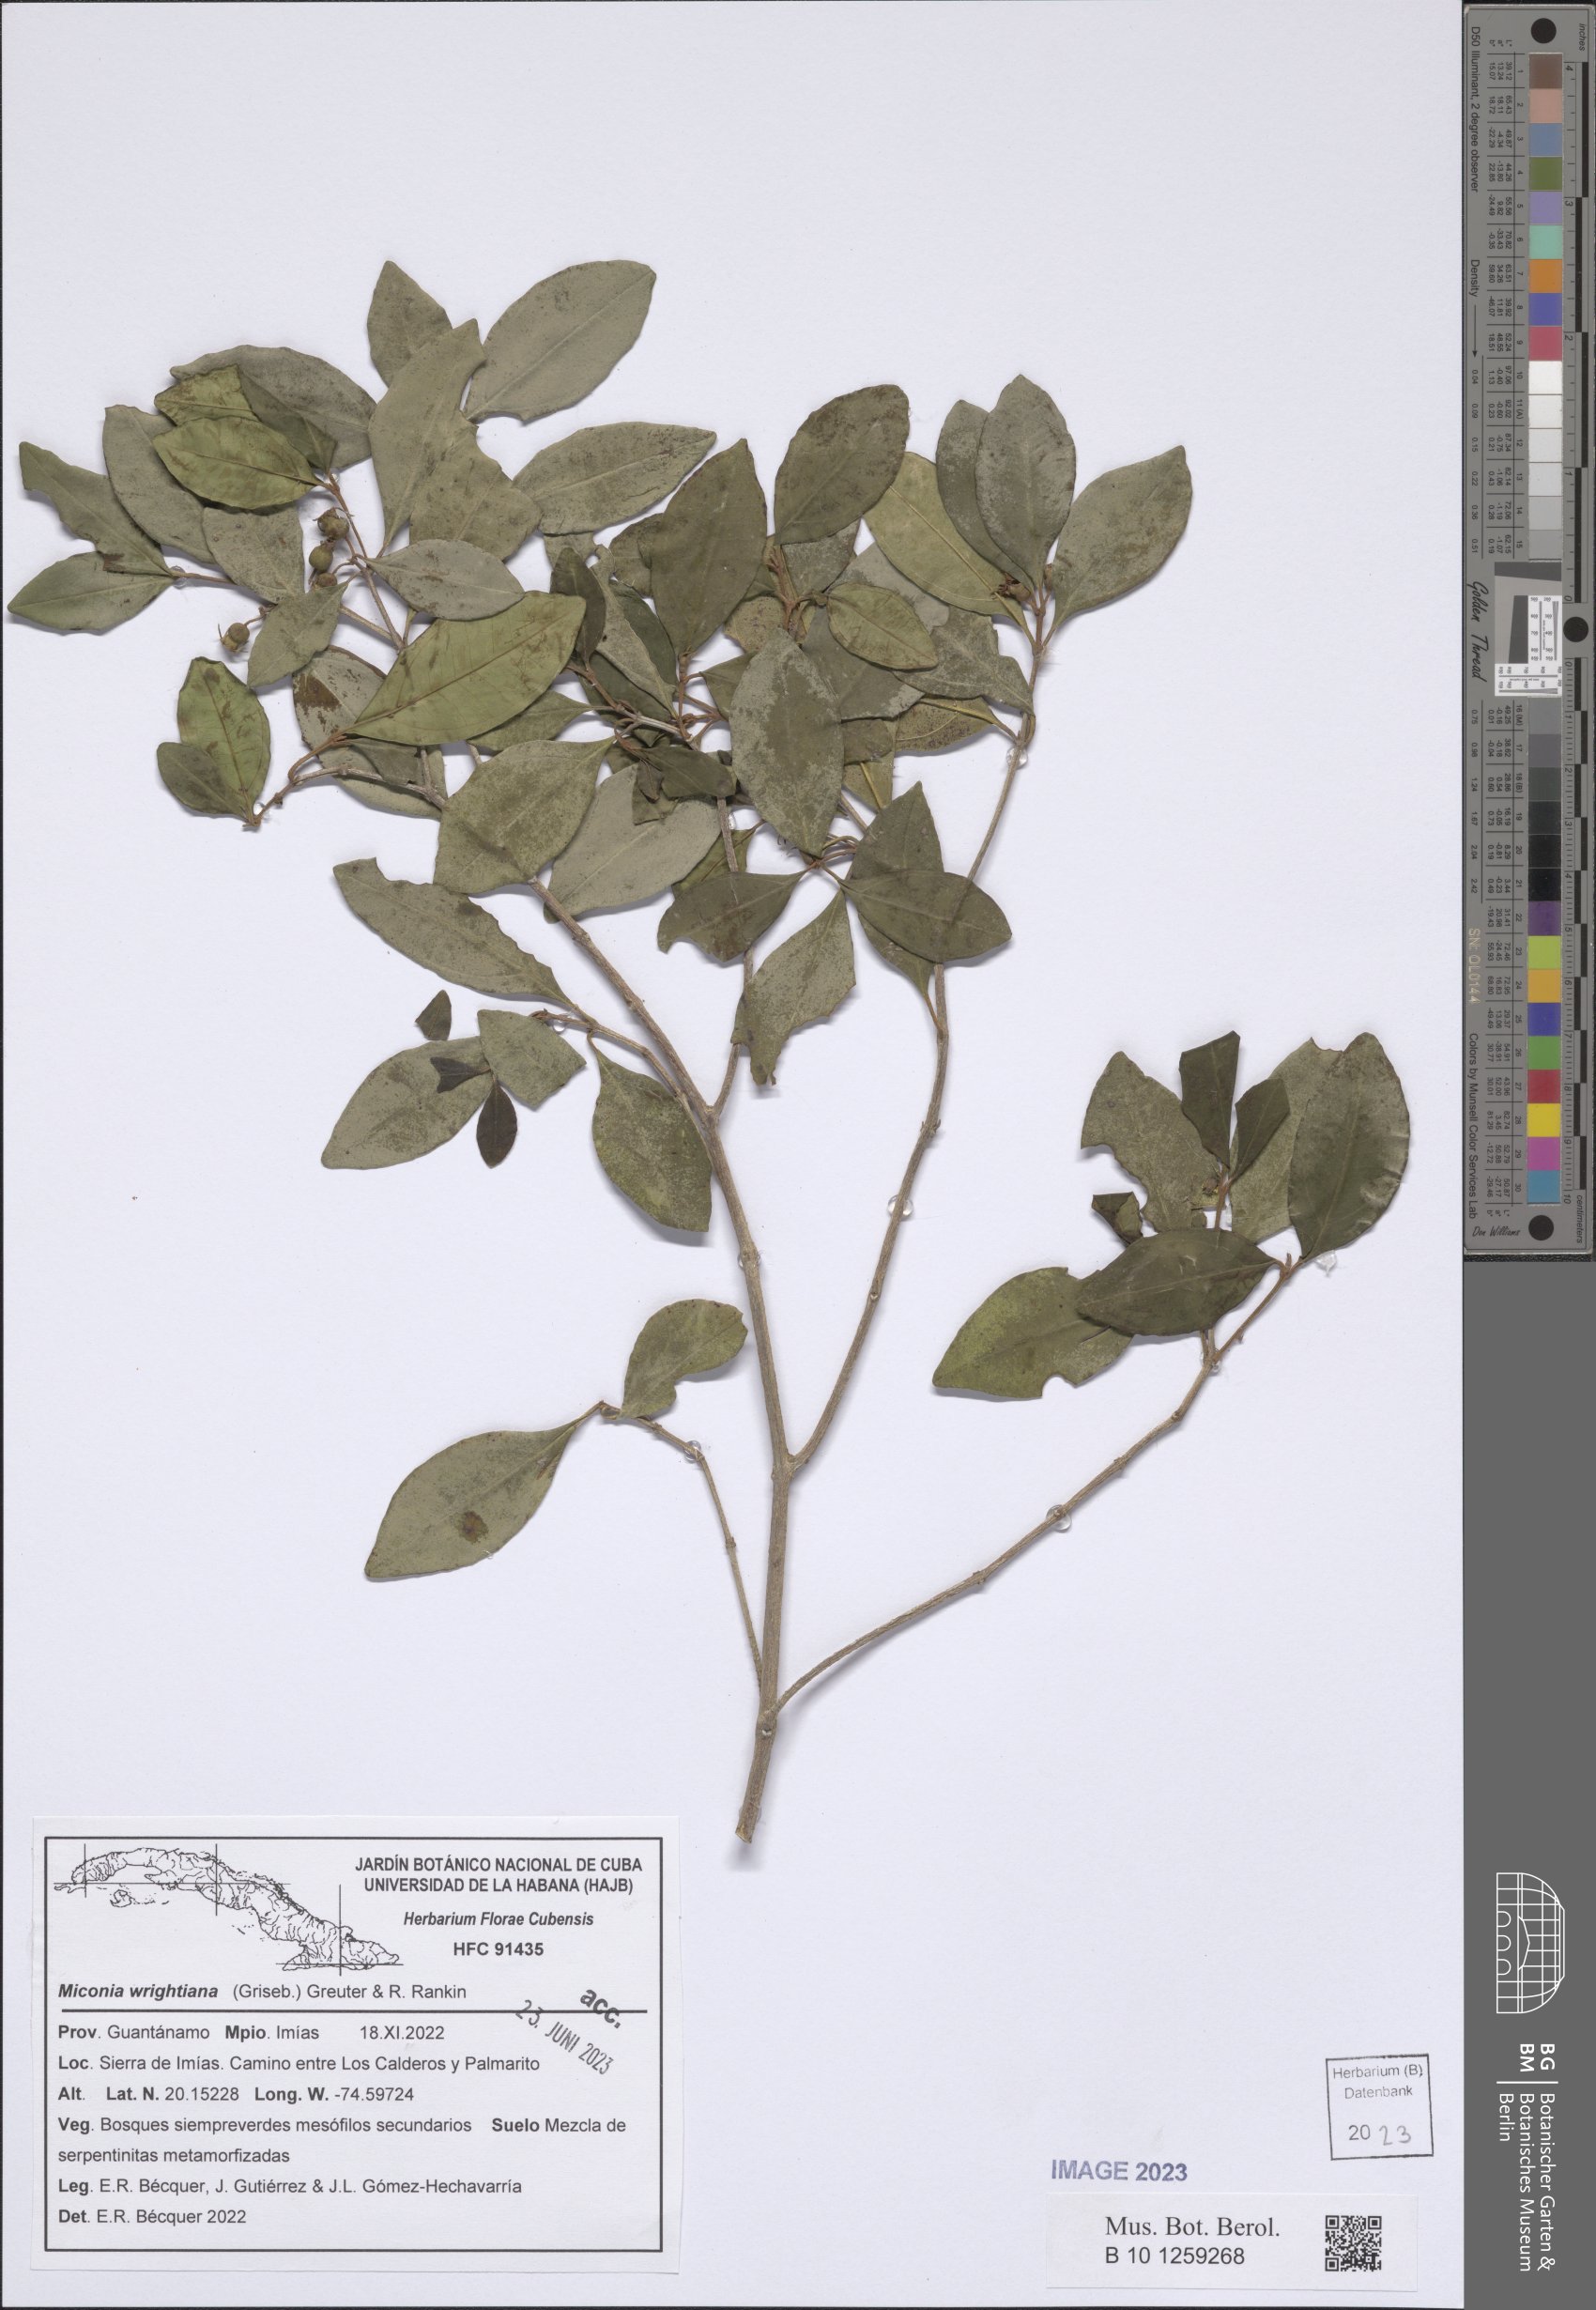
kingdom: Plantae
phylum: Tracheophyta
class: Magnoliopsida
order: Myrtales
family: Melastomataceae
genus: Miconia
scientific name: Miconia wrightiana
